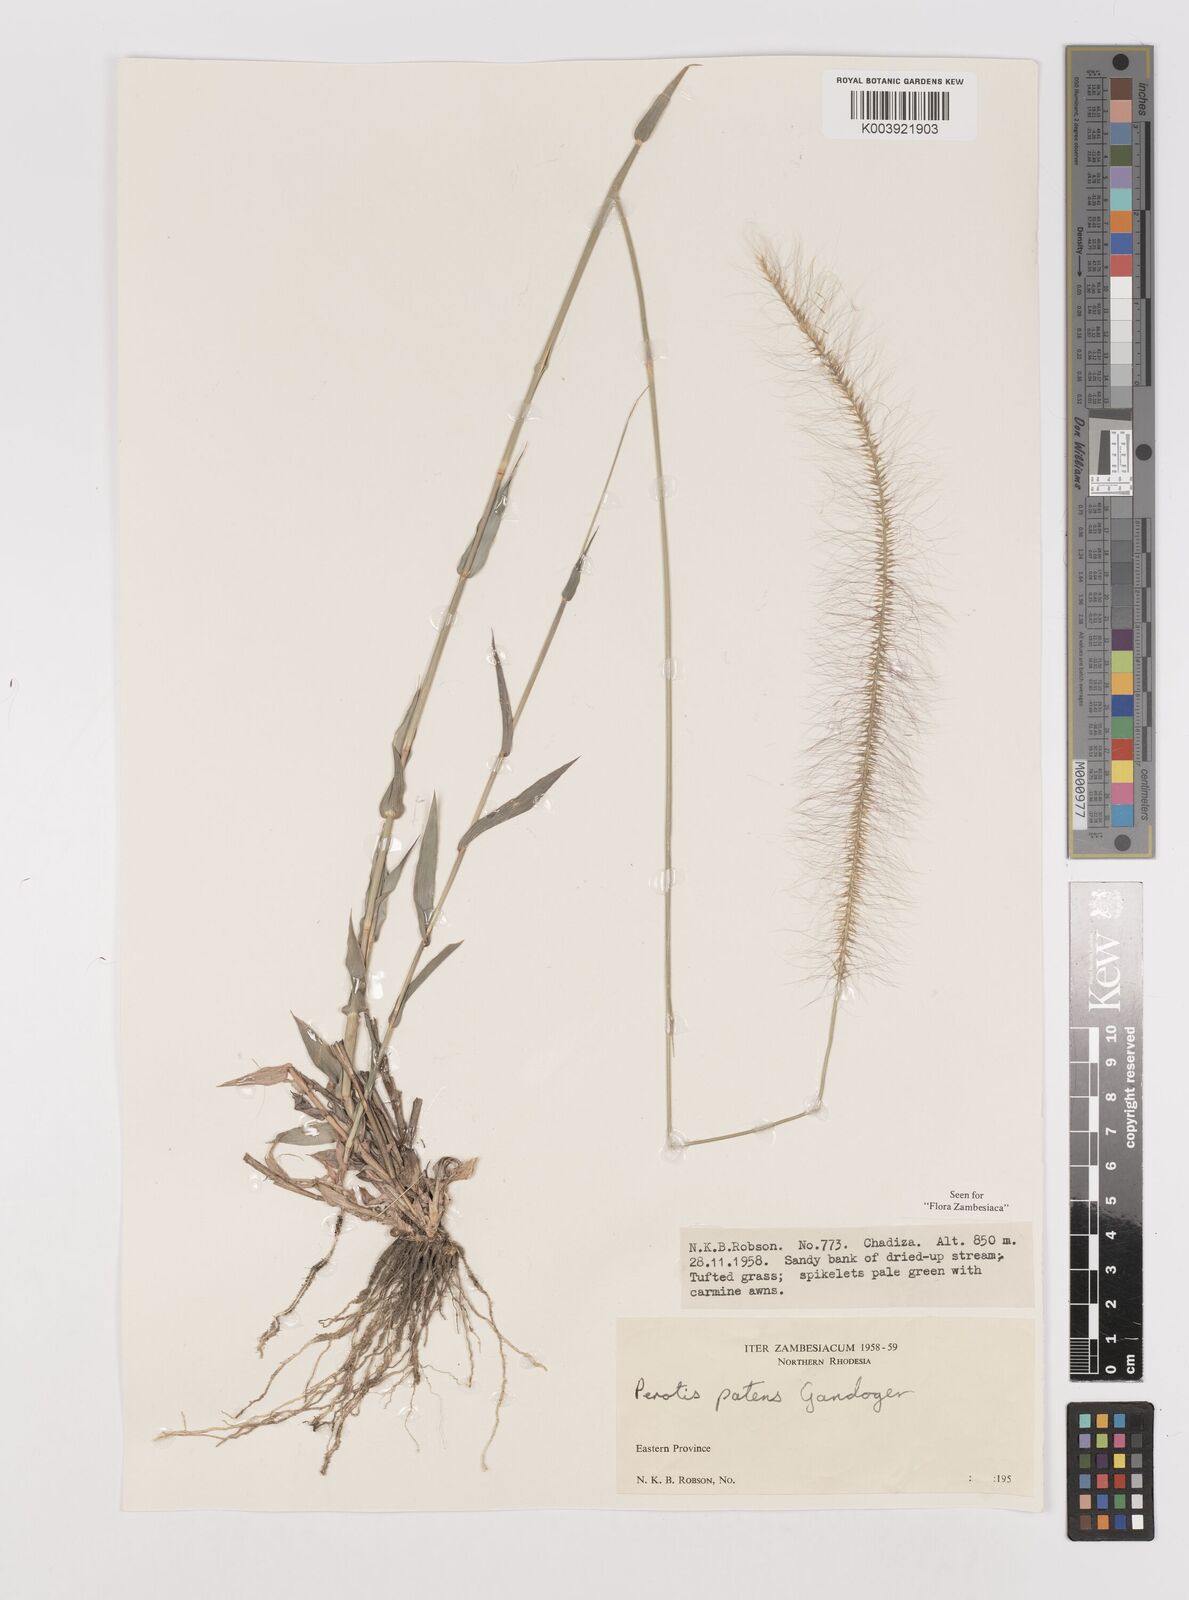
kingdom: Plantae
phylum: Tracheophyta
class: Liliopsida
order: Poales
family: Poaceae
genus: Perotis
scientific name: Perotis patens
